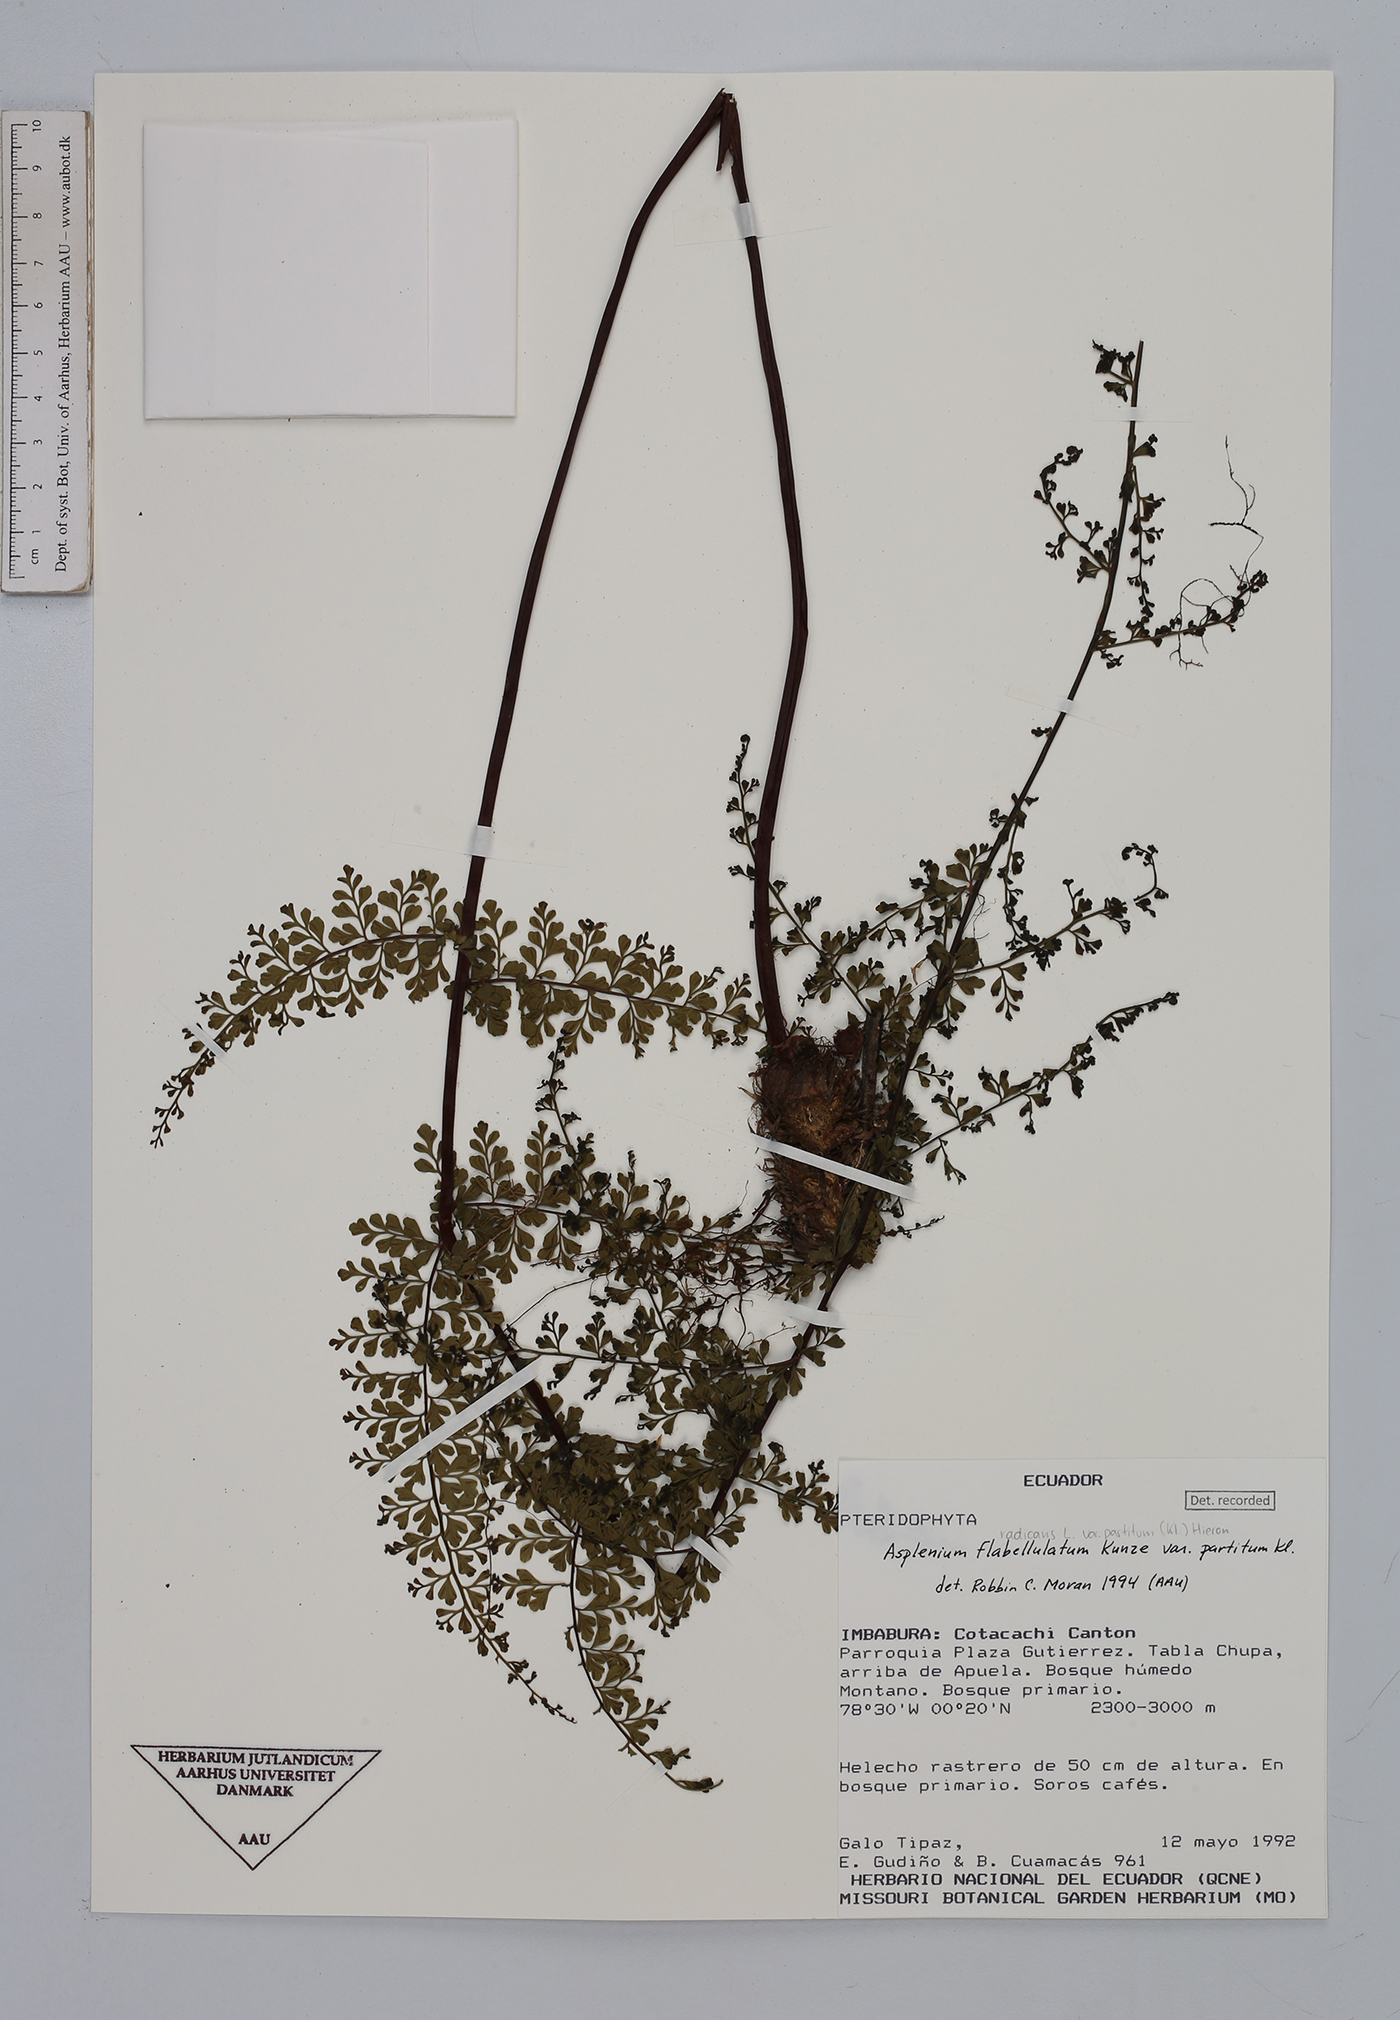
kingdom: Plantae
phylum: Tracheophyta
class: Polypodiopsida
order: Polypodiales
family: Aspleniaceae
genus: Asplenium
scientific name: Asplenium flabellulatum
